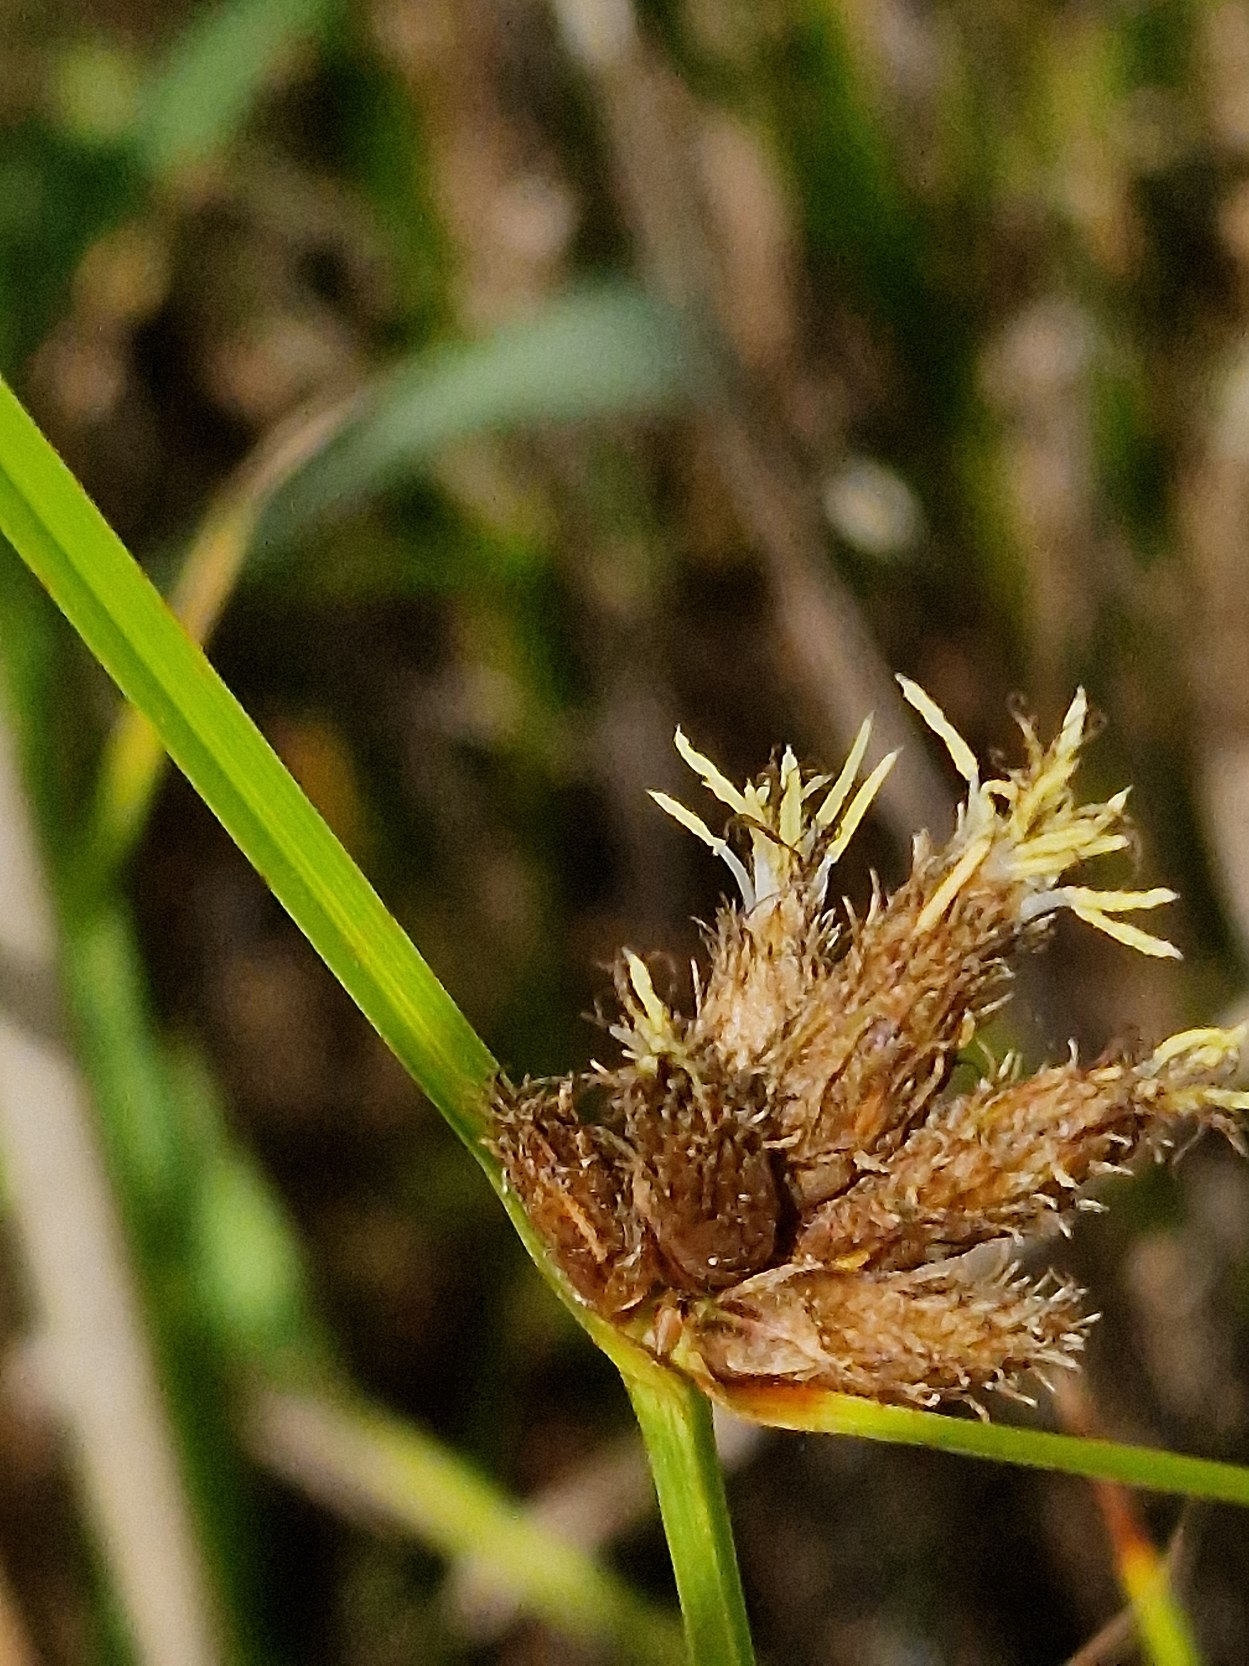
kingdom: Plantae
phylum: Tracheophyta
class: Liliopsida
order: Poales
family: Cyperaceae
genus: Bolboschoenus
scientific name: Bolboschoenus maritimus
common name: Strand-kogleaks
